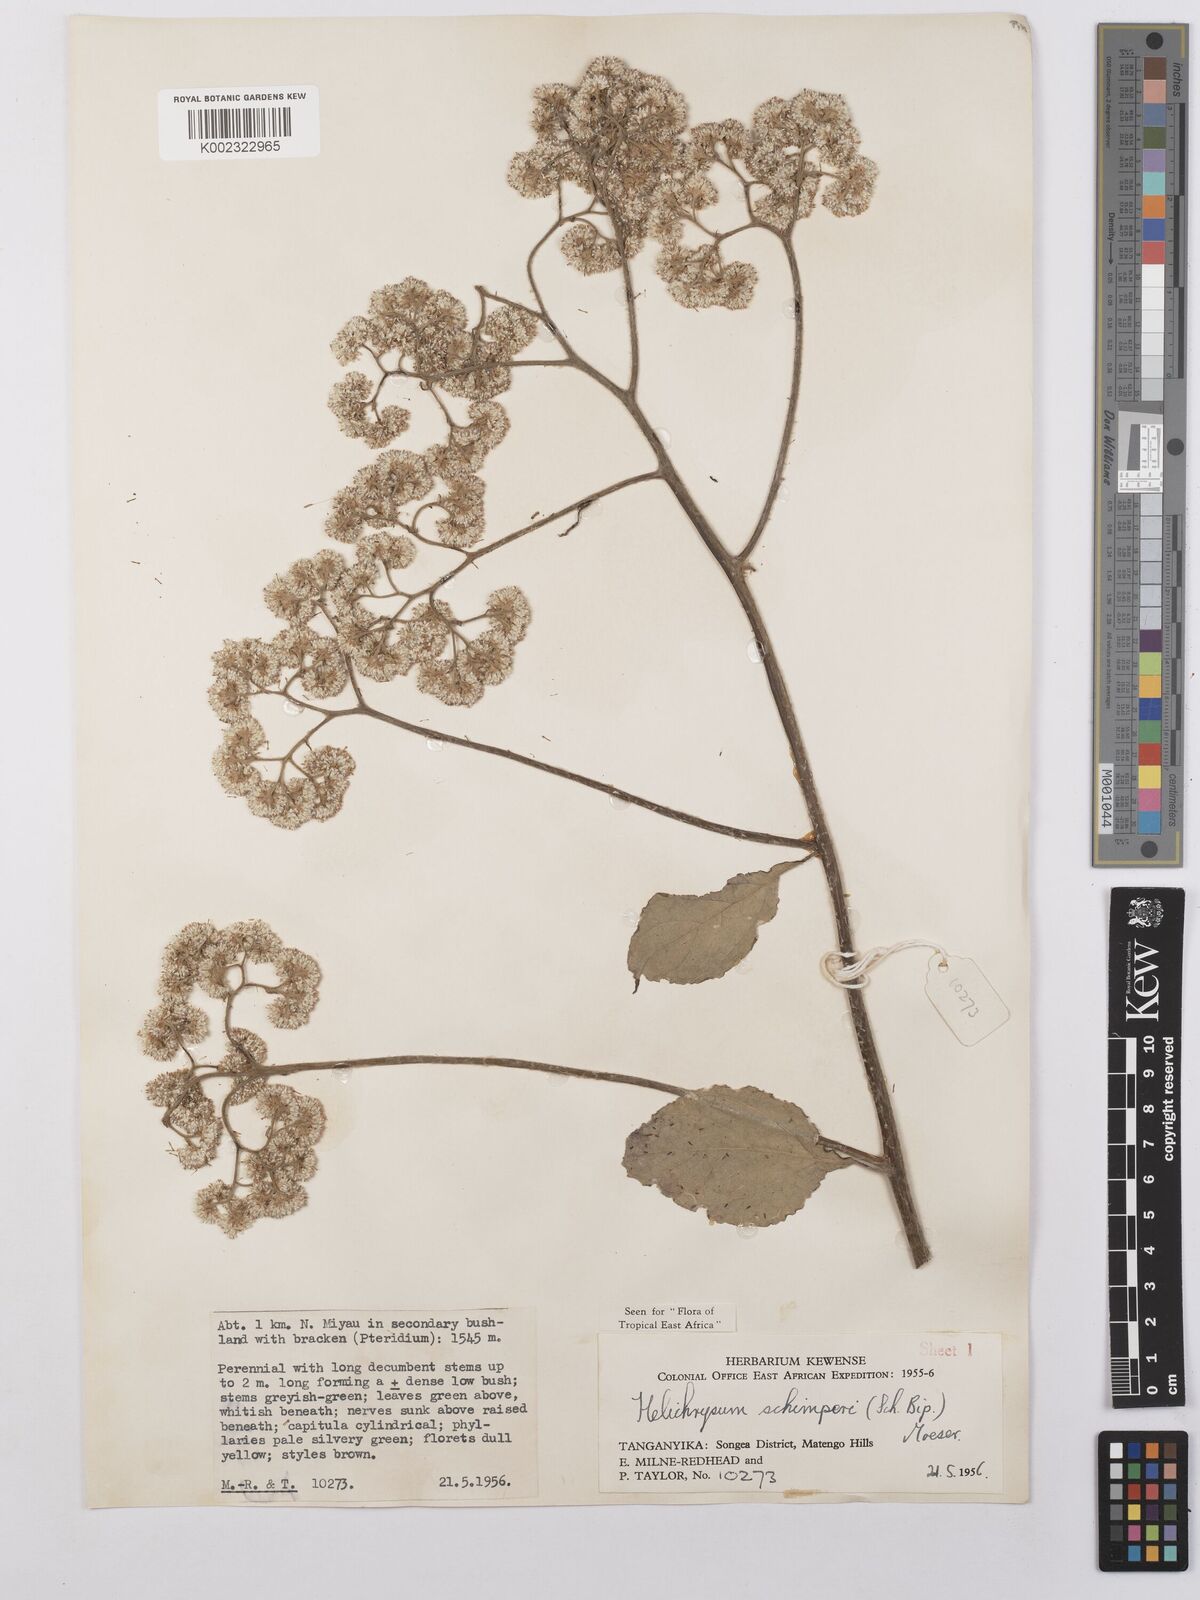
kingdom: Plantae
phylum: Tracheophyta
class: Magnoliopsida
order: Asterales
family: Asteraceae
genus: Helichrysum
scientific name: Helichrysum schimperi
